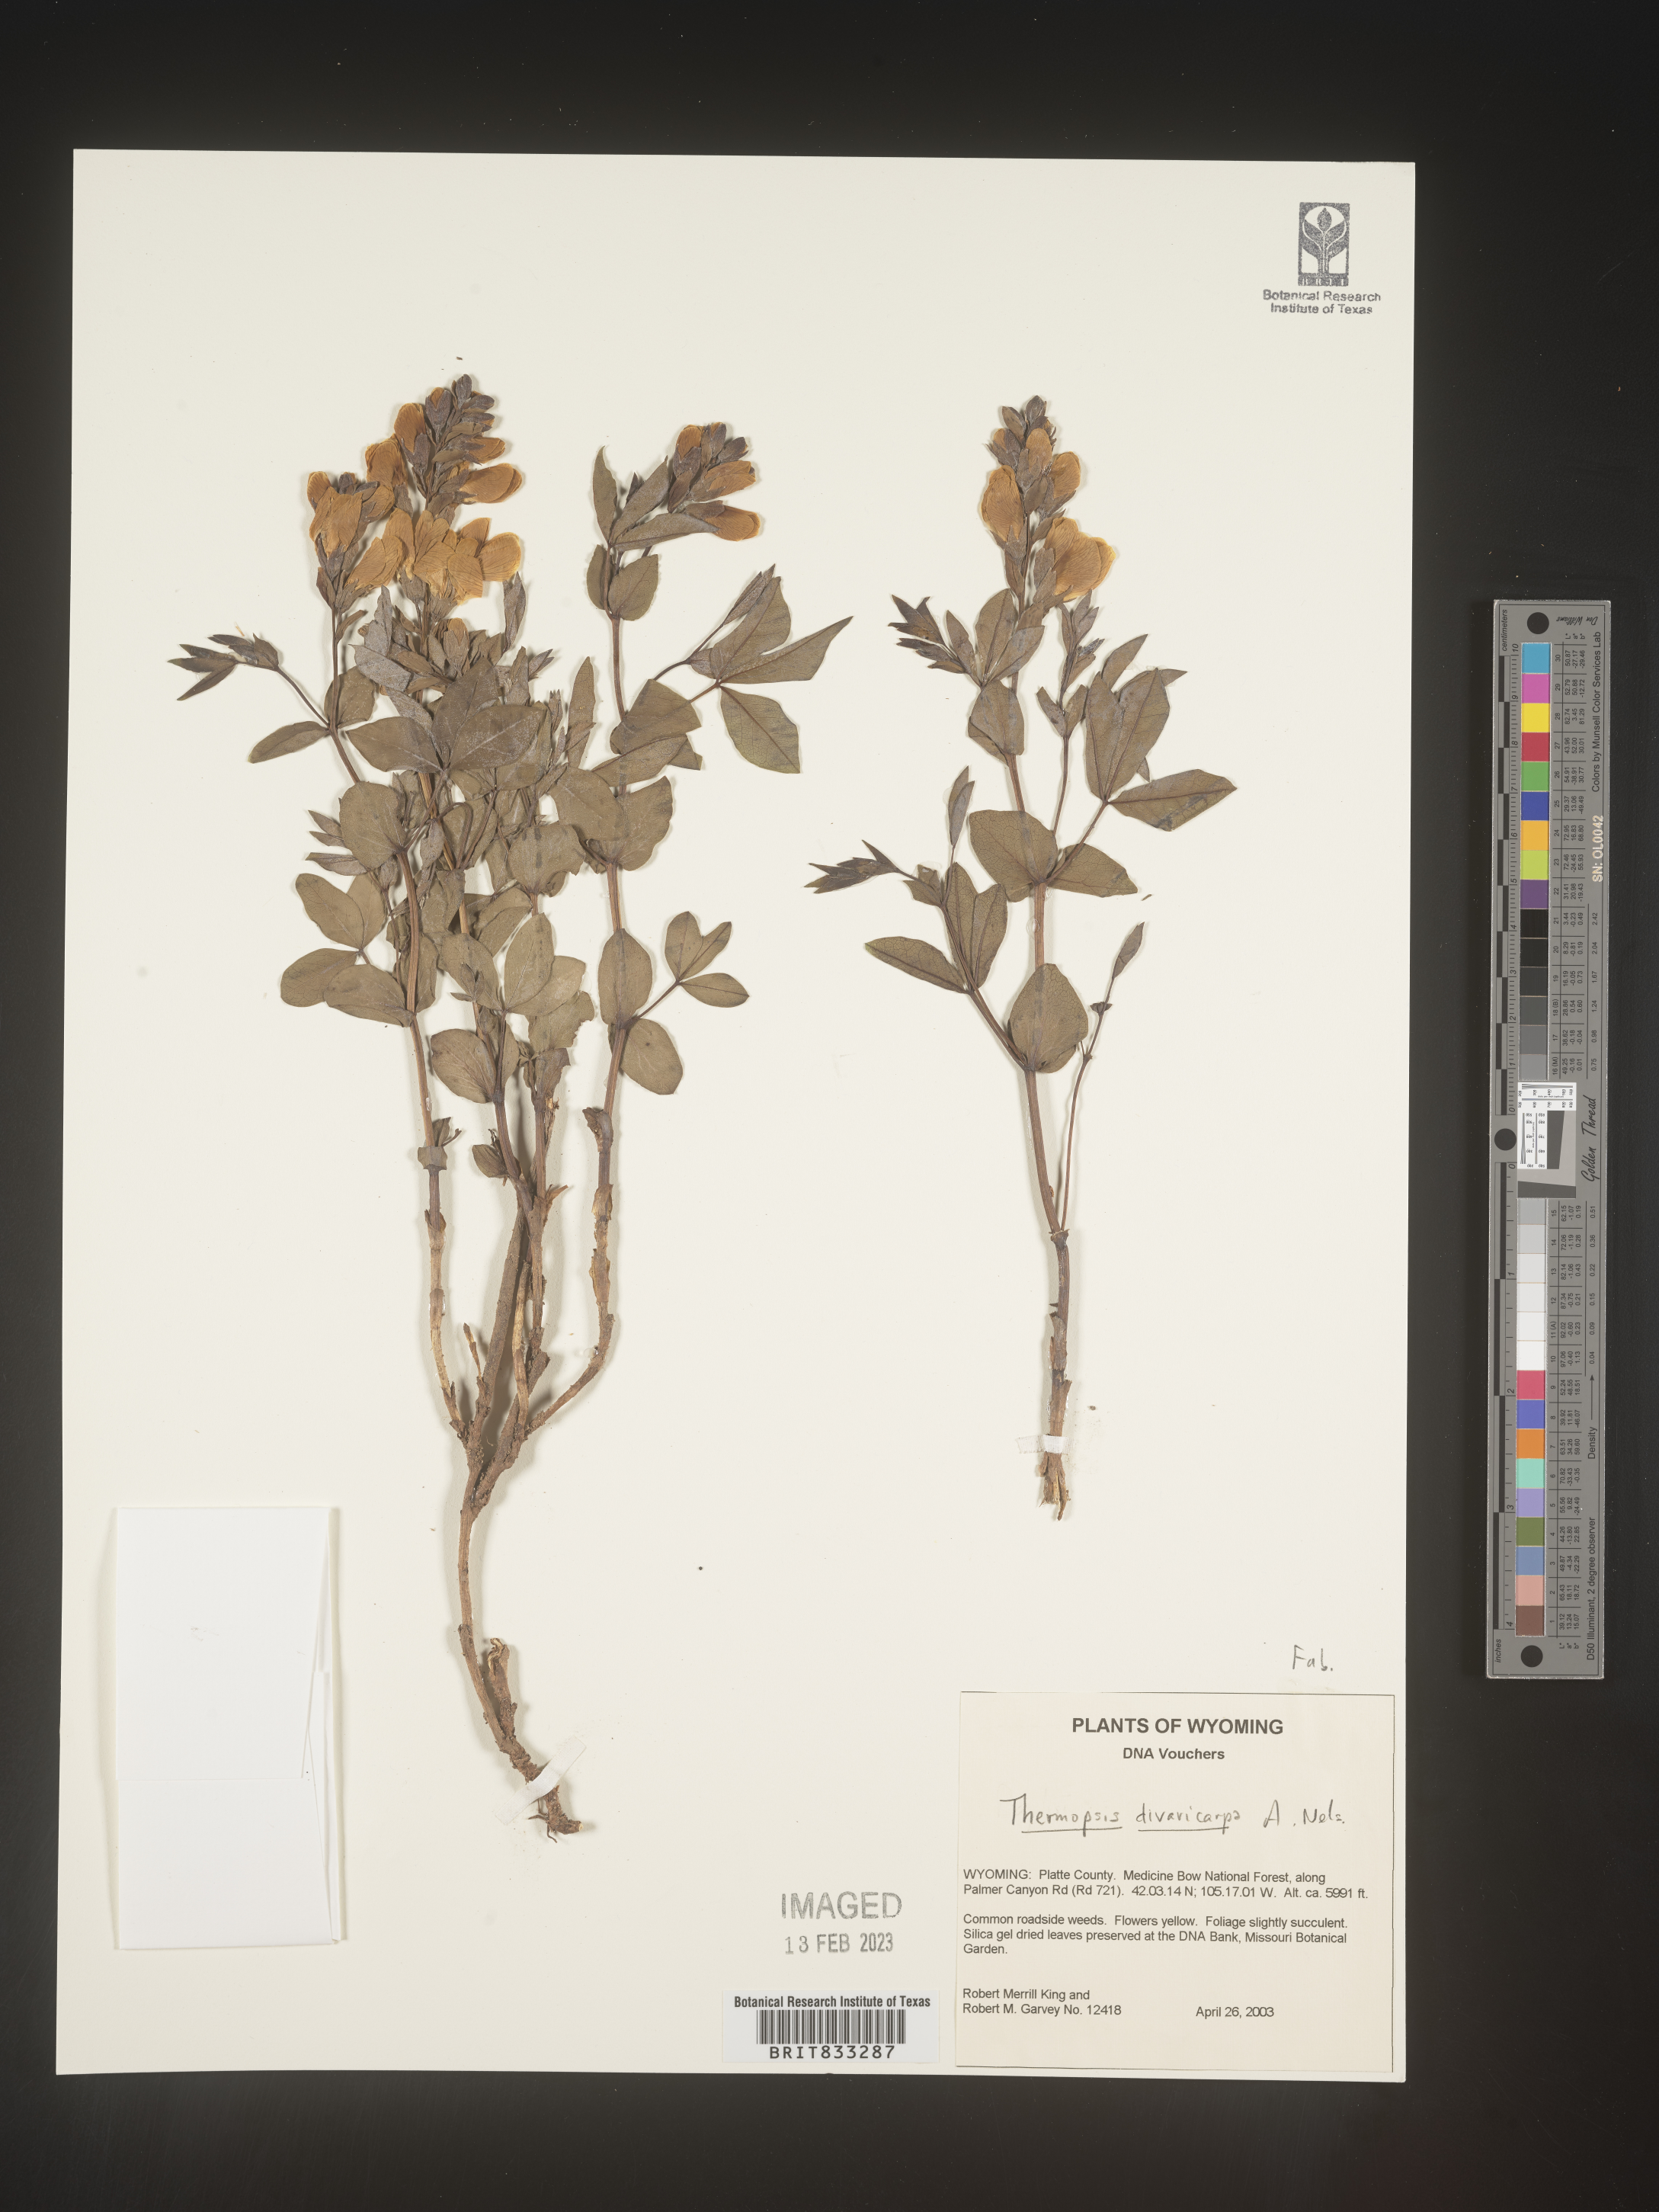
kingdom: Plantae
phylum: Tracheophyta
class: Magnoliopsida
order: Fabales
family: Fabaceae
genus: Thermopsis
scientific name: Thermopsis rhombifolia
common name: Circle-pod-pea
